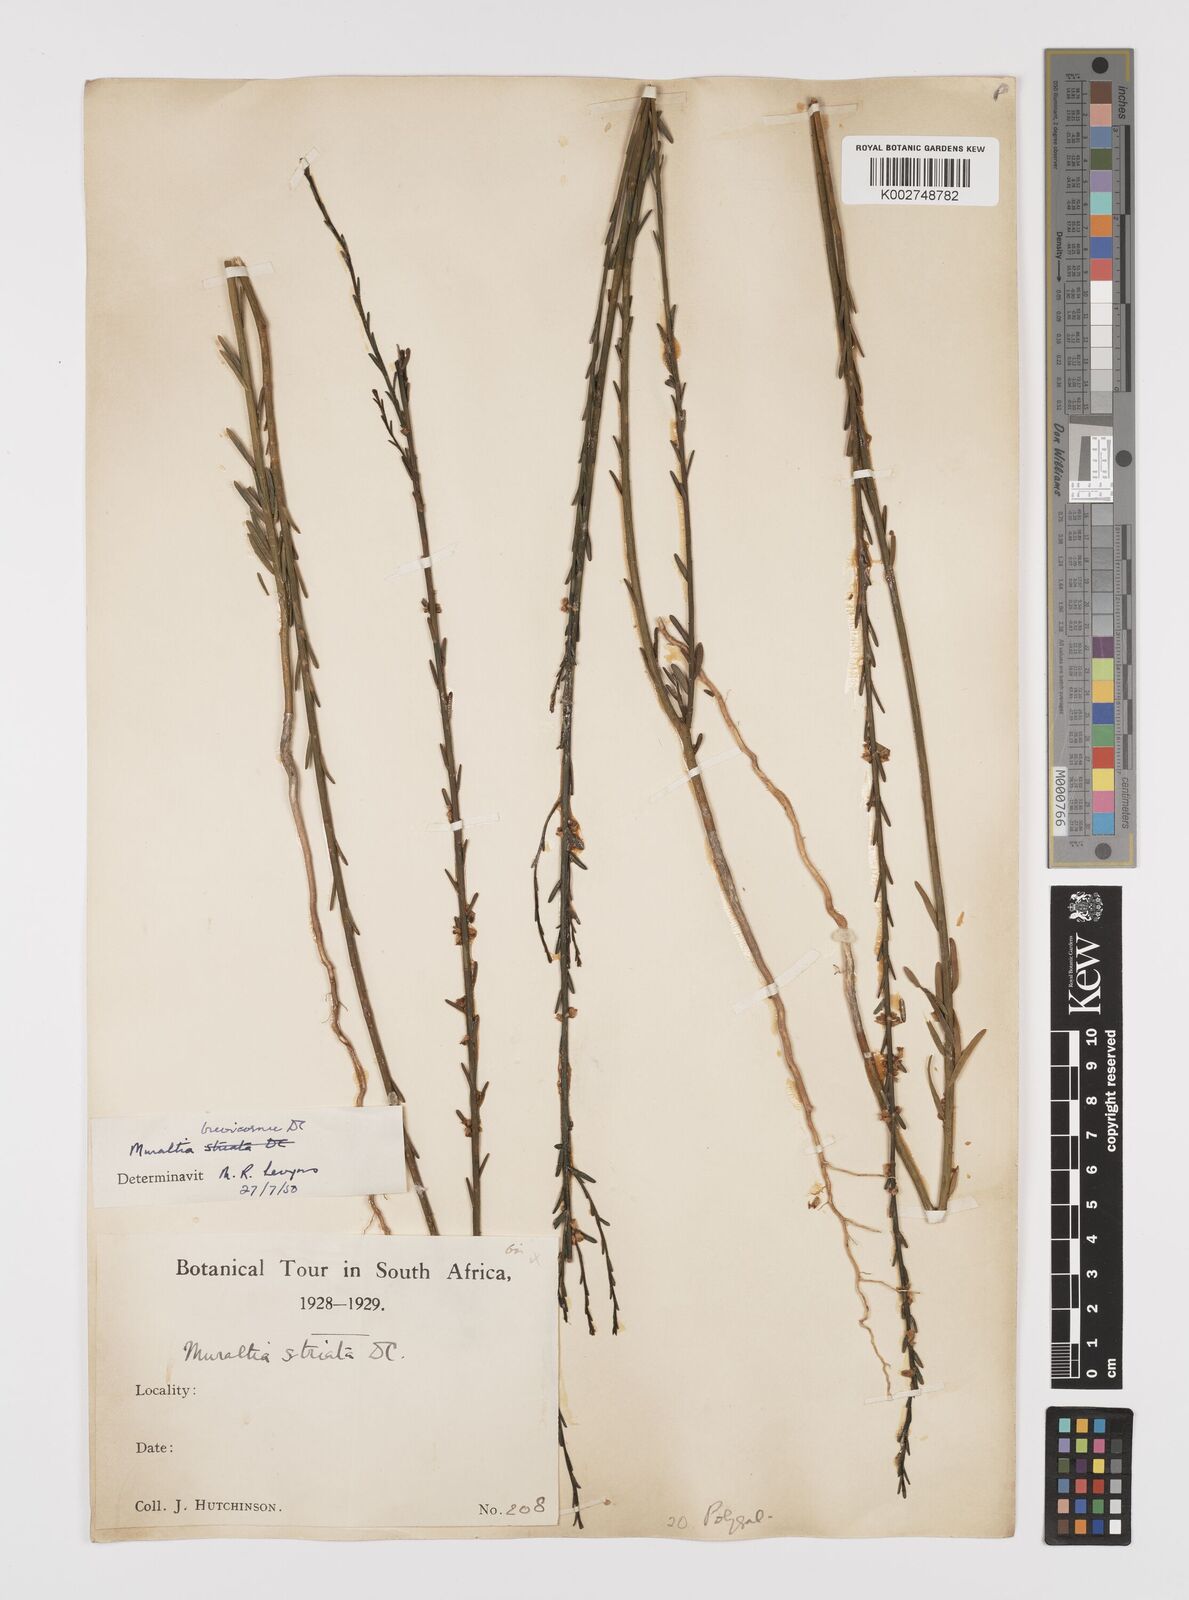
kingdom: Plantae
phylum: Tracheophyta
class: Magnoliopsida
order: Fabales
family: Polygalaceae
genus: Muraltia
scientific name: Muraltia striata
